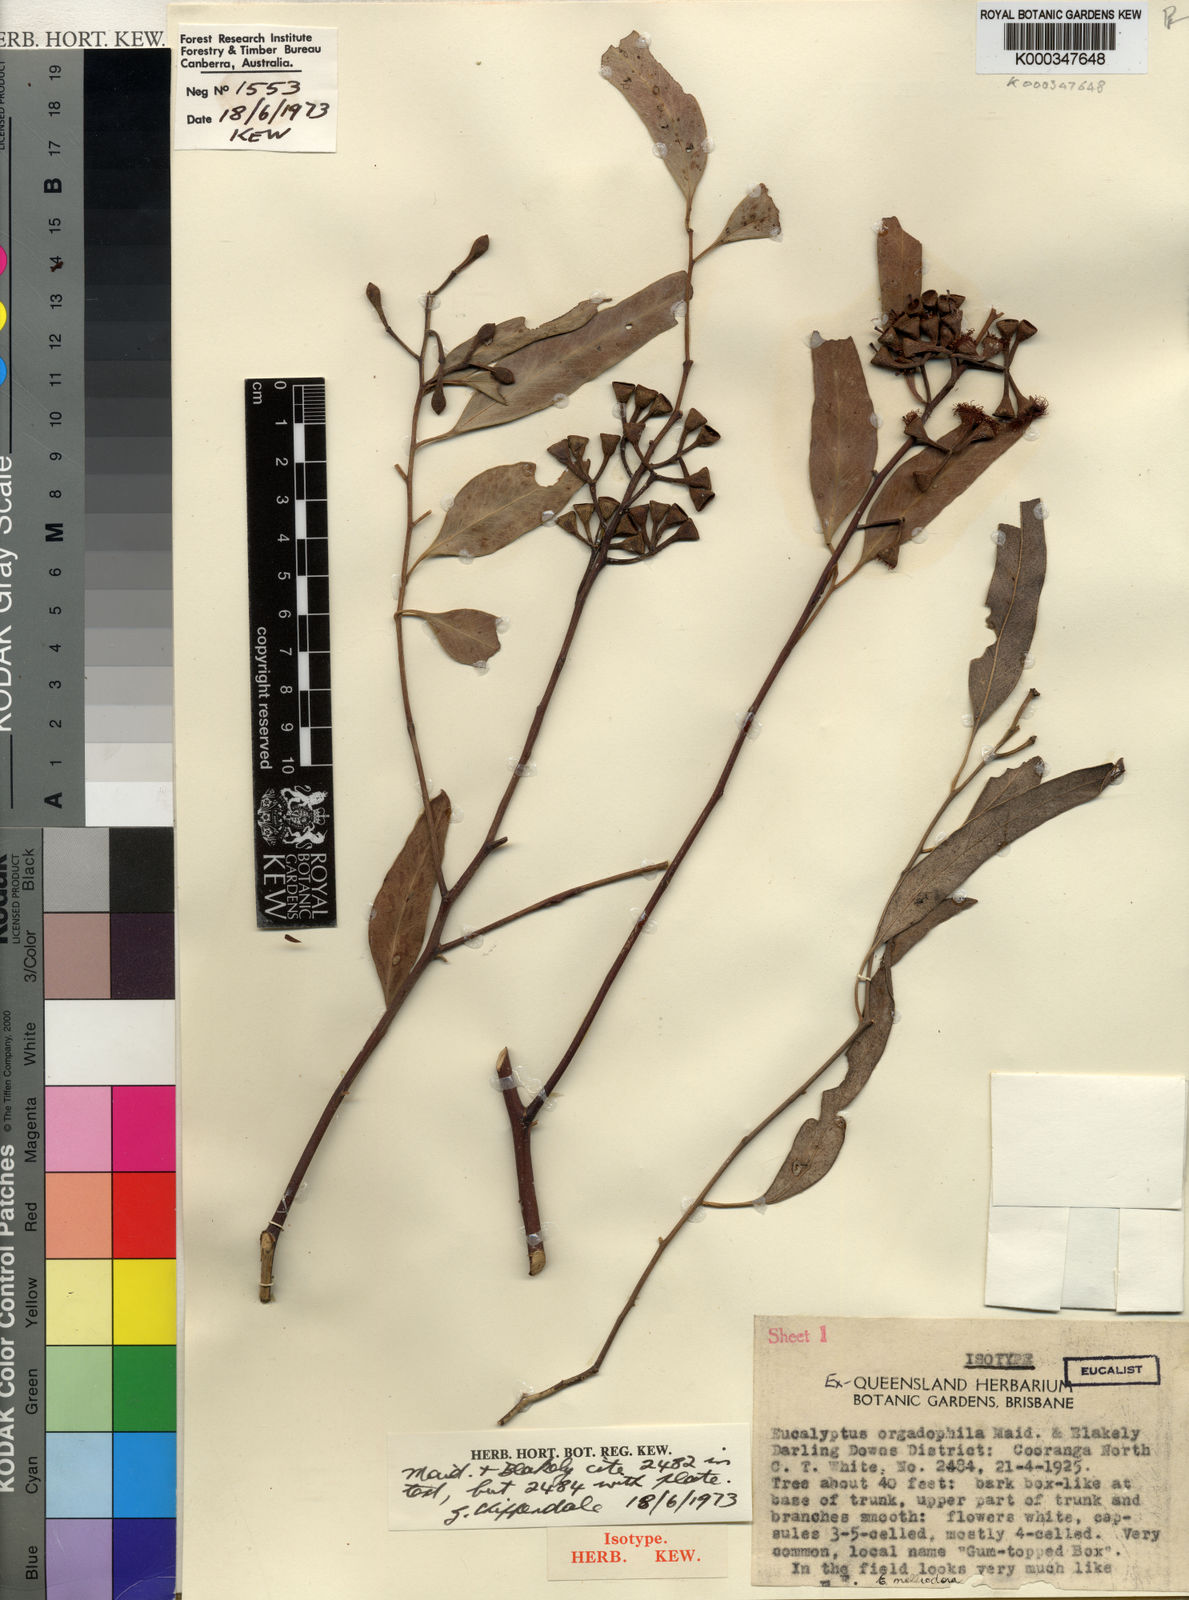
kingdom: Plantae
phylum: Tracheophyta
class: Magnoliopsida
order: Myrtales
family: Myrtaceae
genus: Eucalyptus
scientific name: Eucalyptus orgadophila
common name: Mountain coolibah
